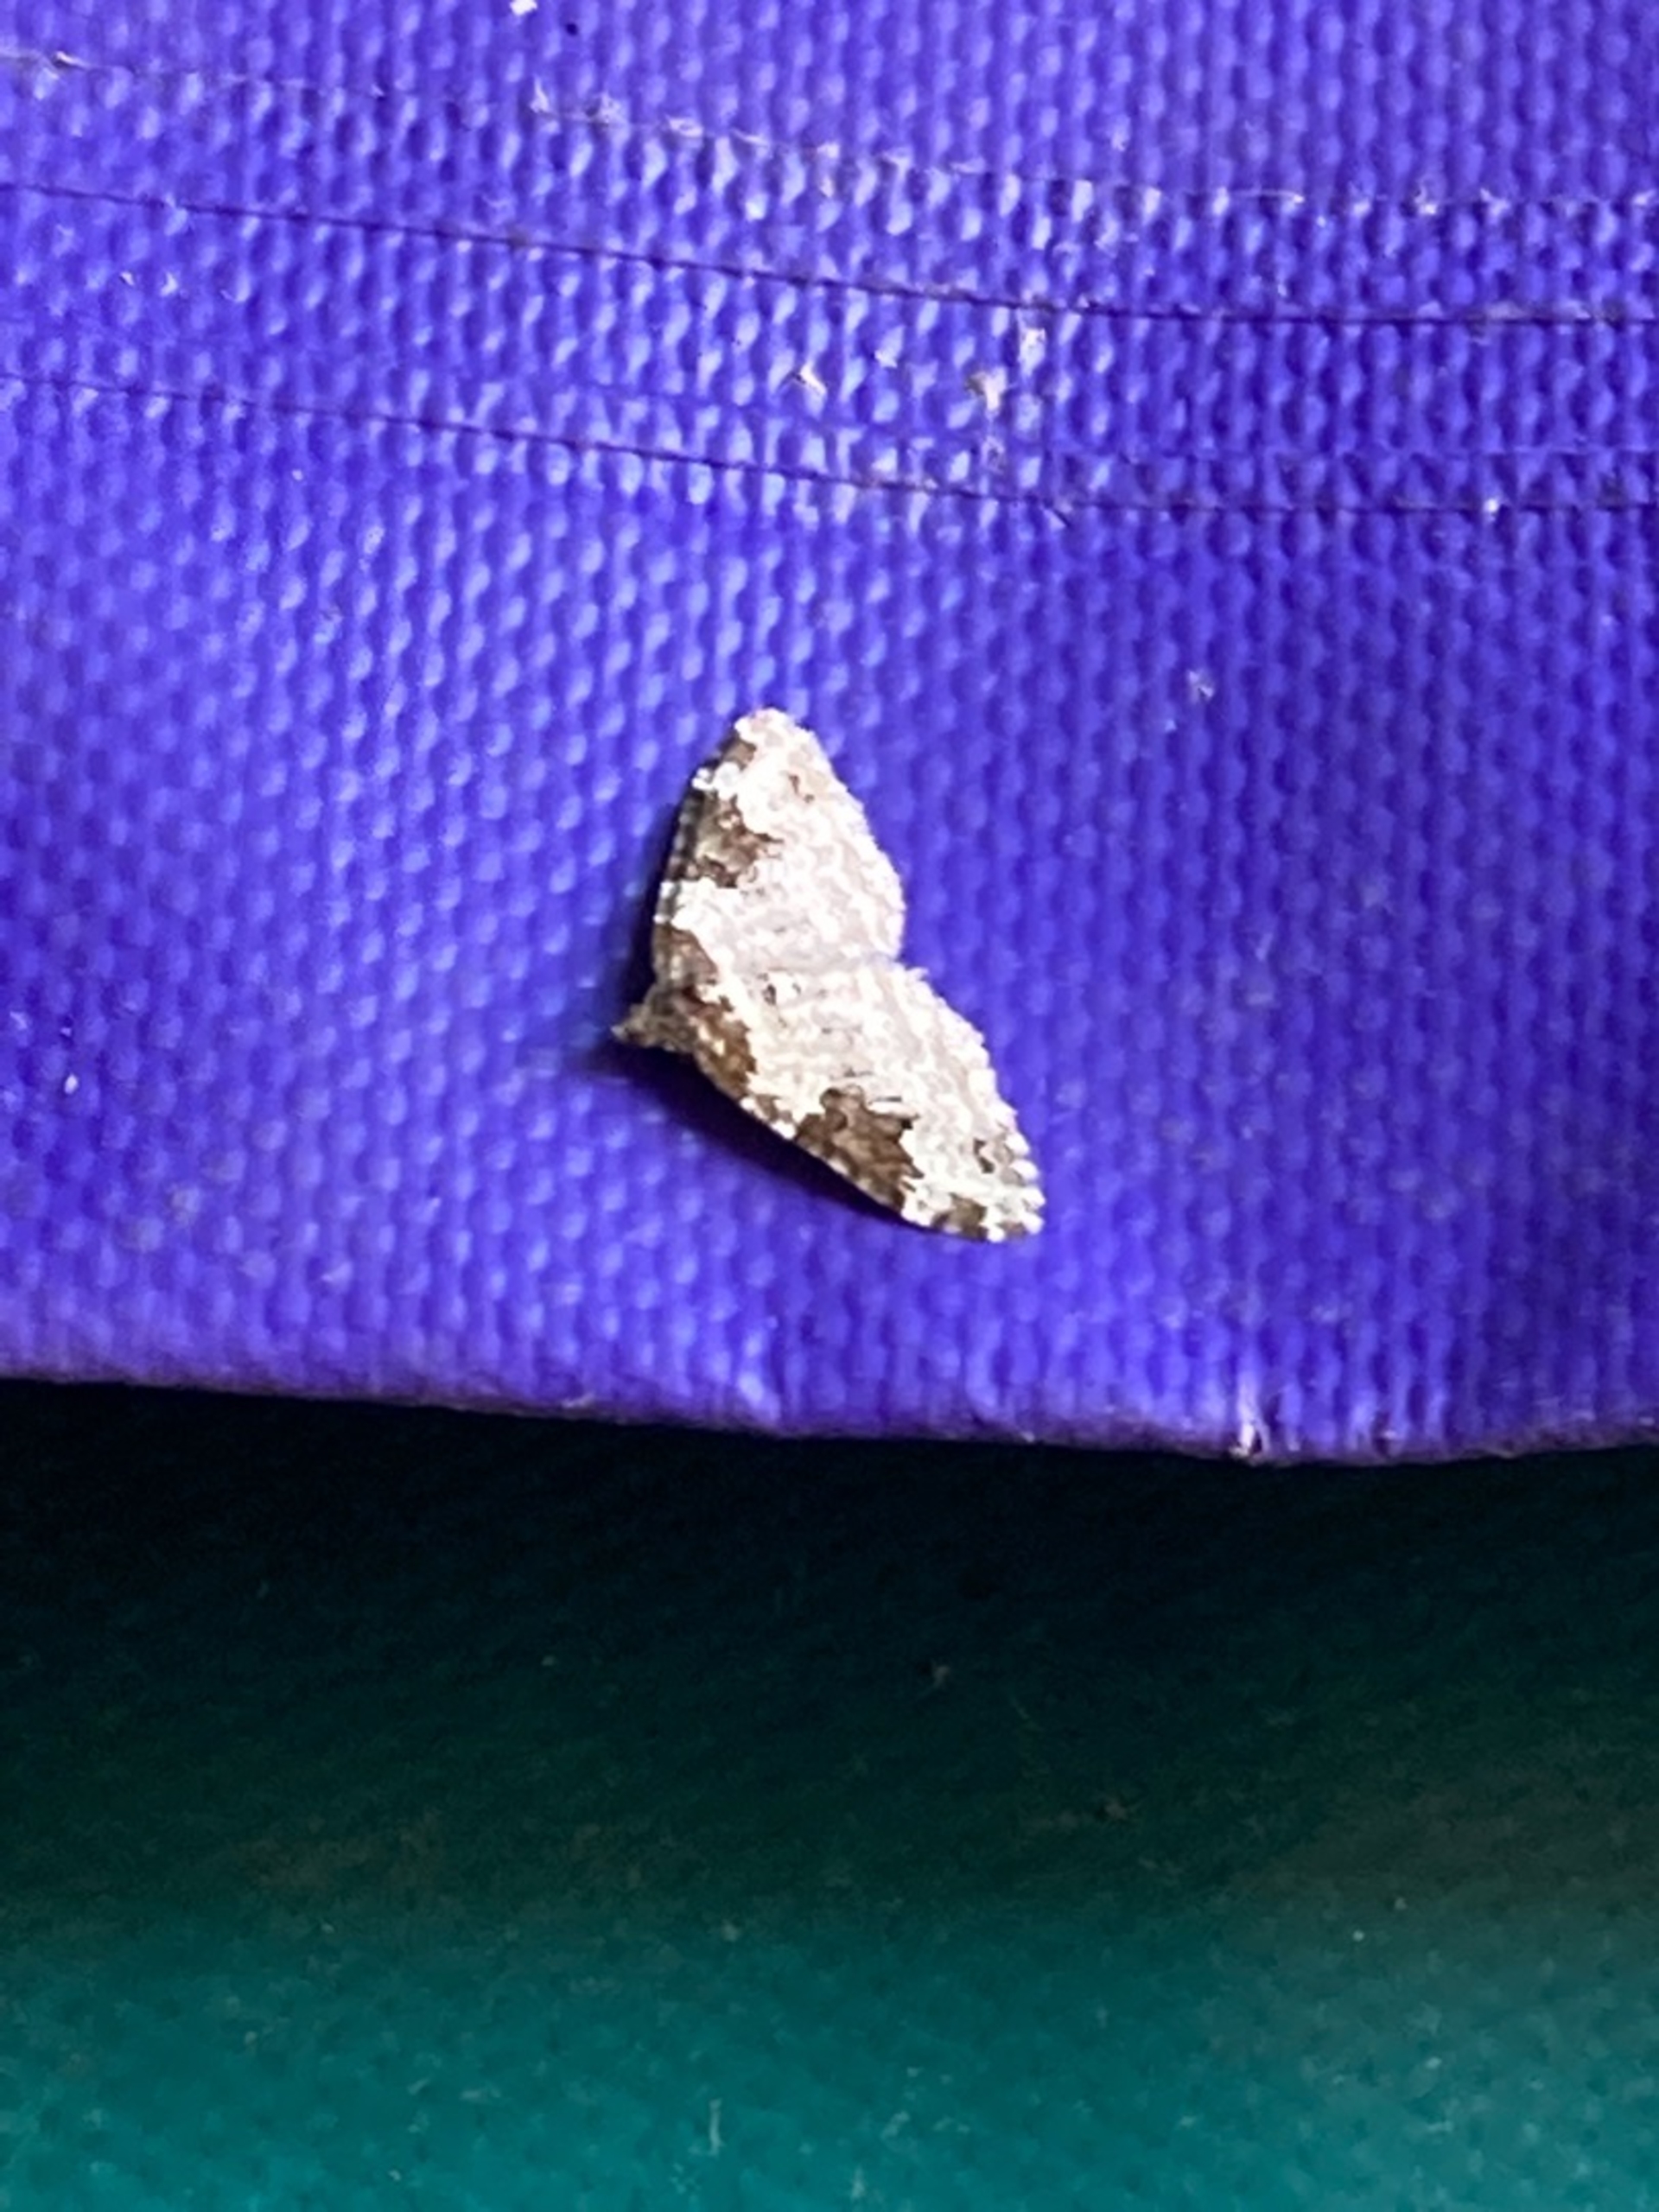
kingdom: Animalia
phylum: Arthropoda
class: Insecta
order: Lepidoptera
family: Geometridae
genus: Xanthorhoe
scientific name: Xanthorhoe fluctuata
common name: Sortbæltet bladmåler
